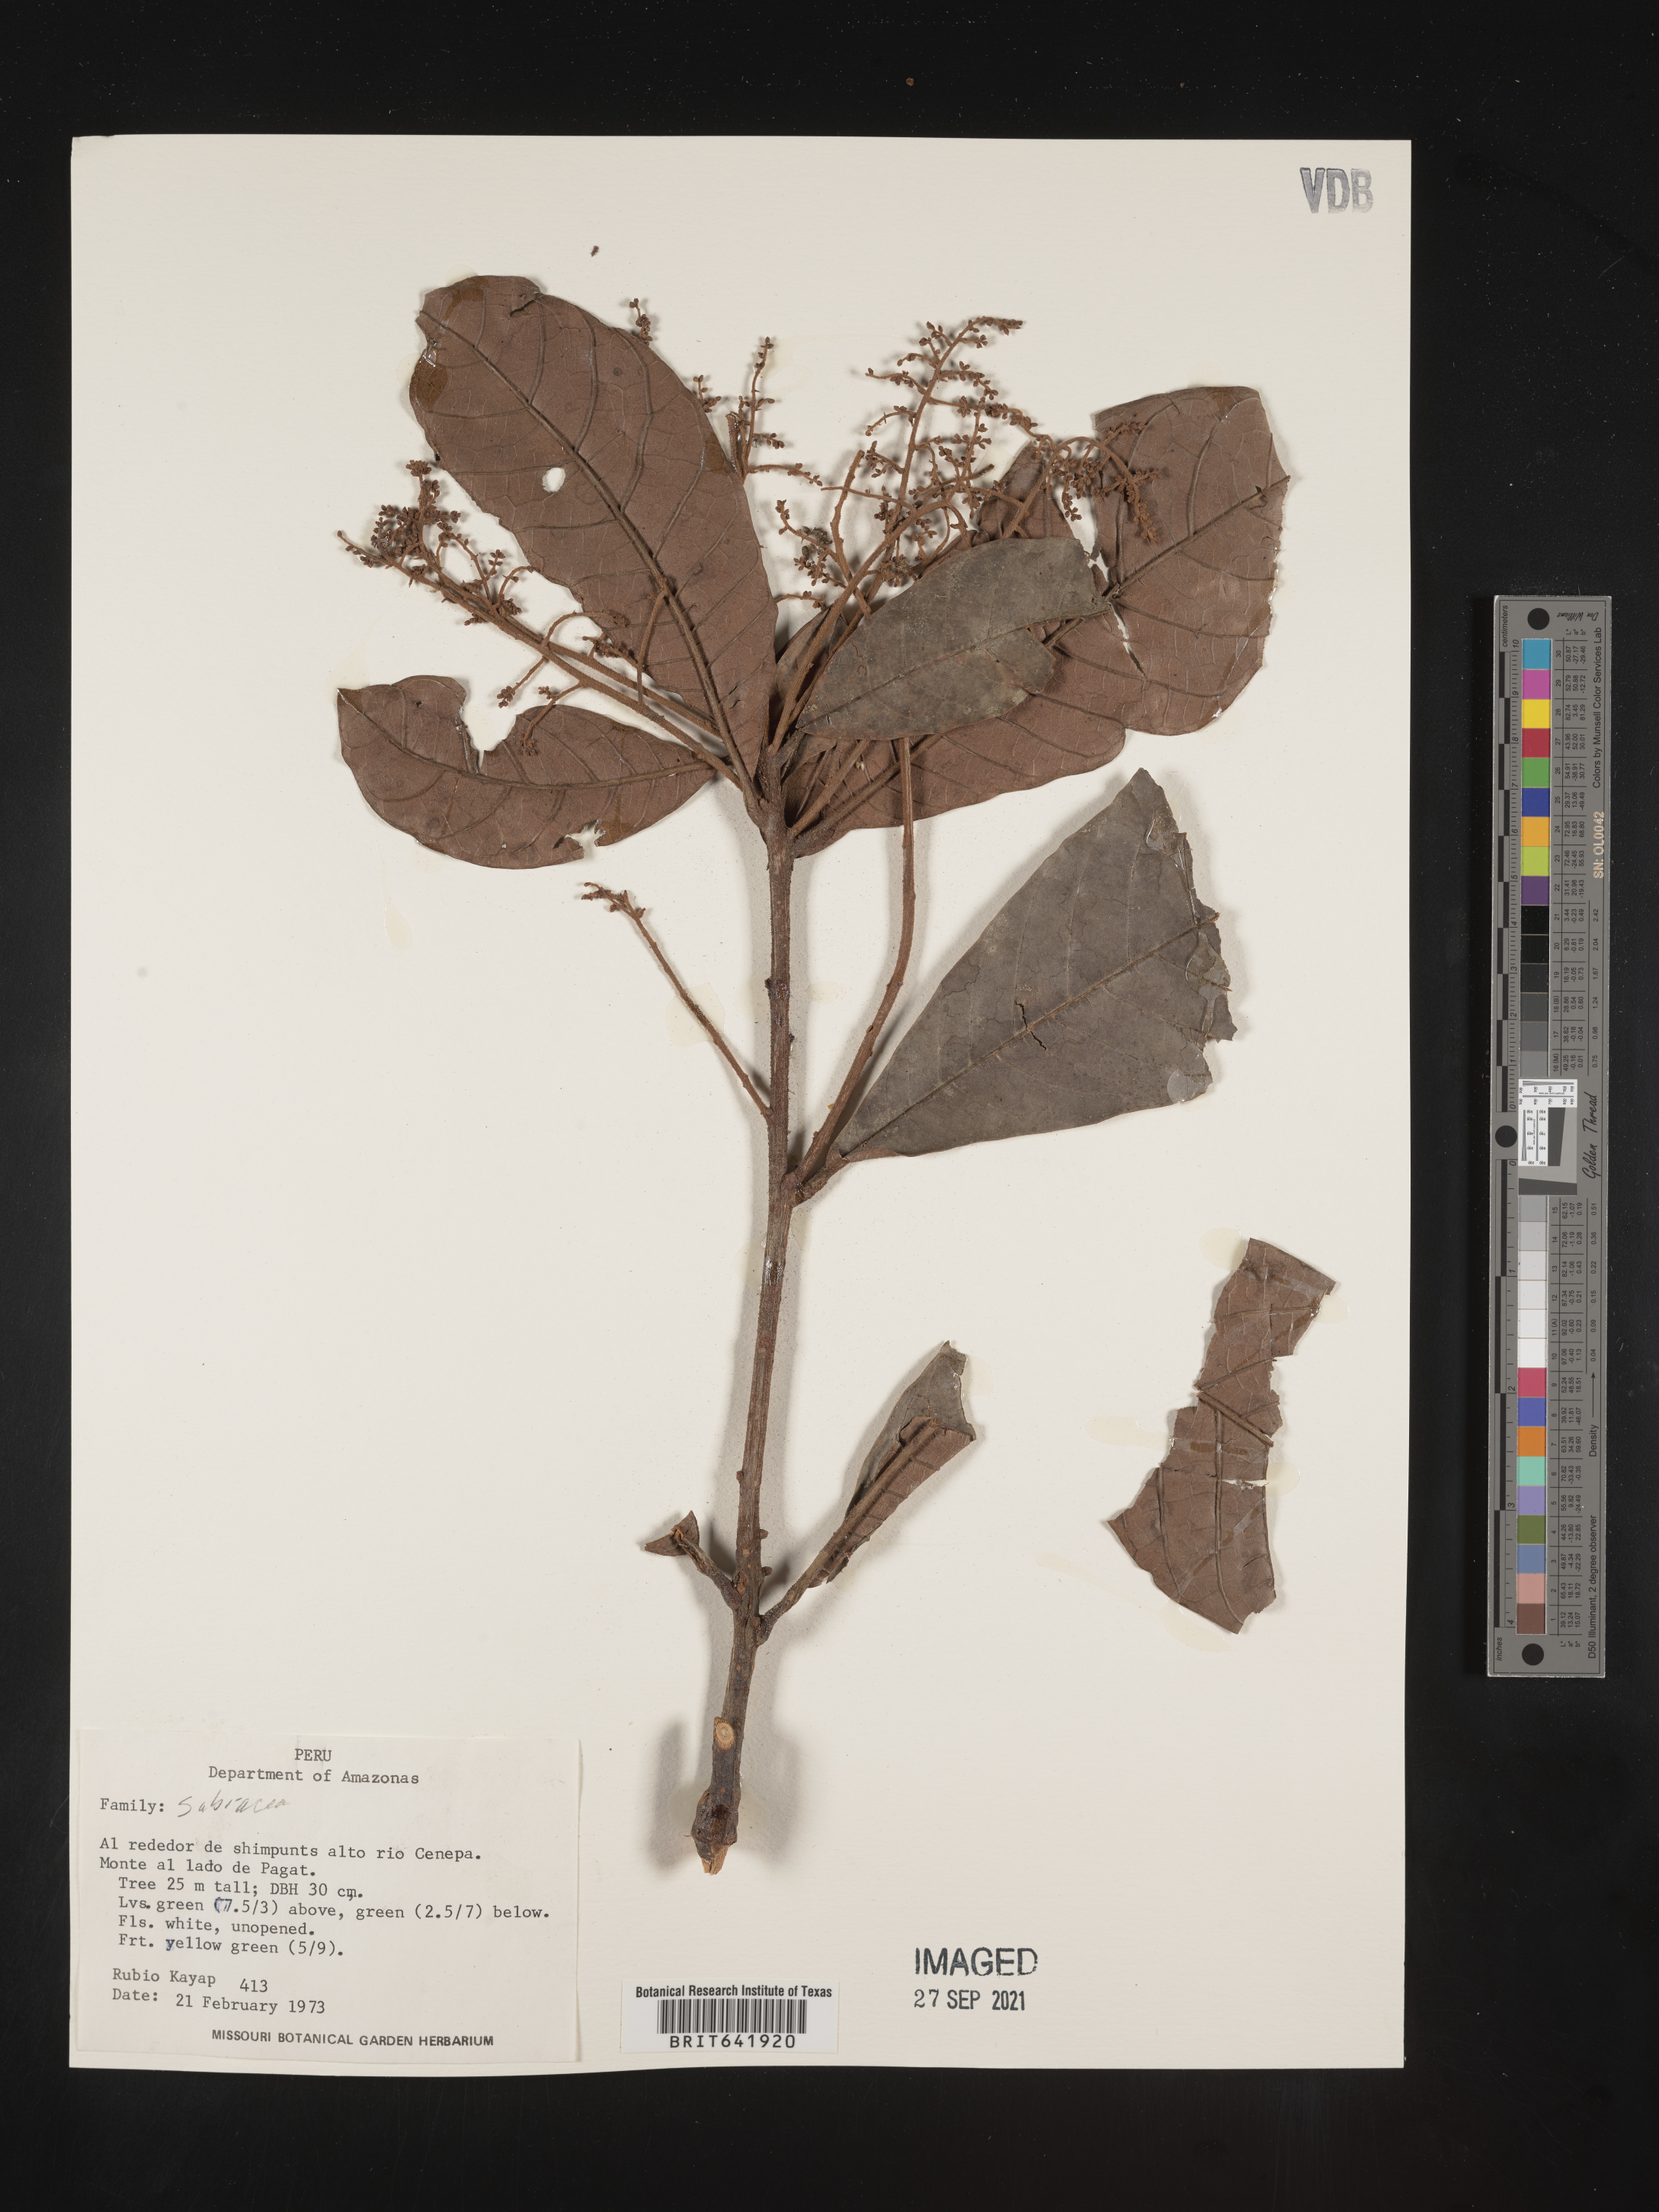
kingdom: Plantae
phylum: Tracheophyta
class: Magnoliopsida
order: Proteales
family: Sabiaceae
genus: Meliosma
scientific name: Meliosma
